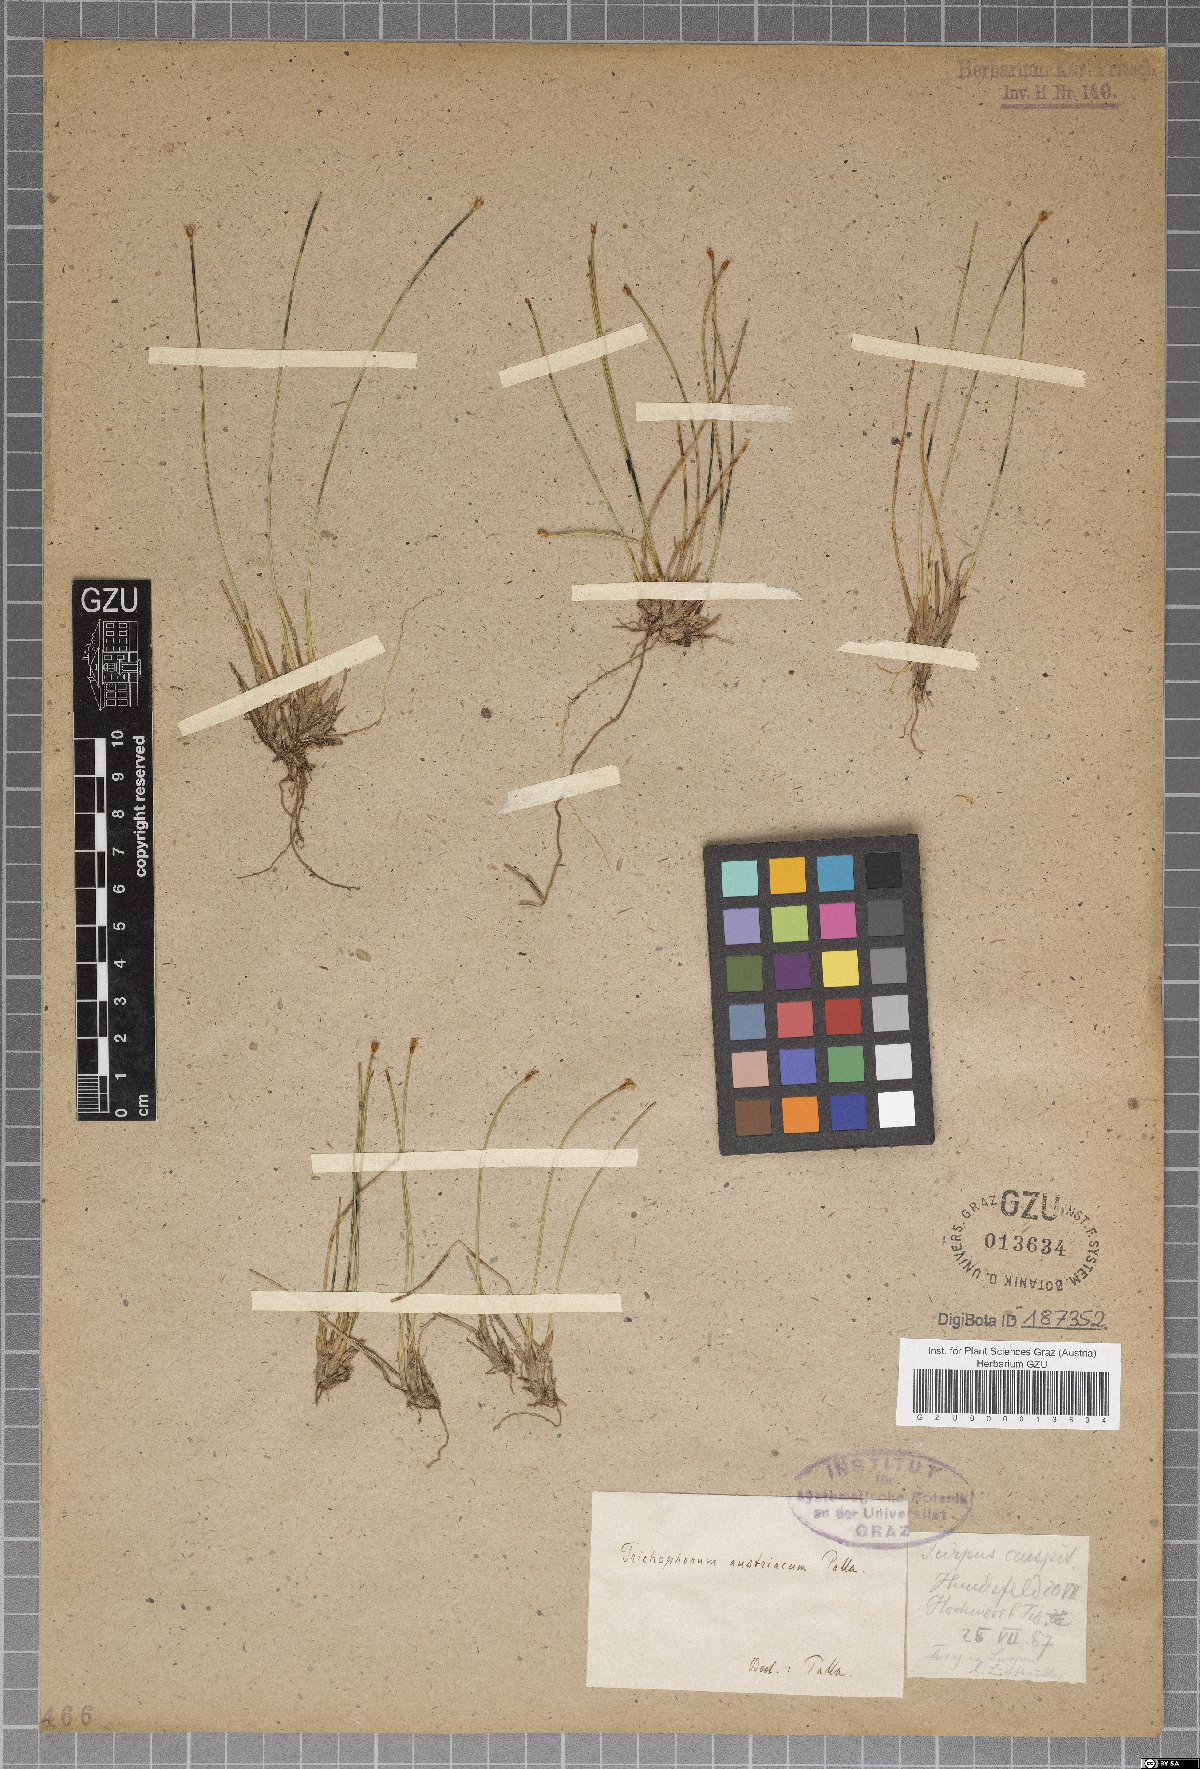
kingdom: Plantae
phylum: Tracheophyta
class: Liliopsida
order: Poales
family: Cyperaceae
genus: Trichophorum
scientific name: Trichophorum cespitosum
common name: Cespitose bulrush
